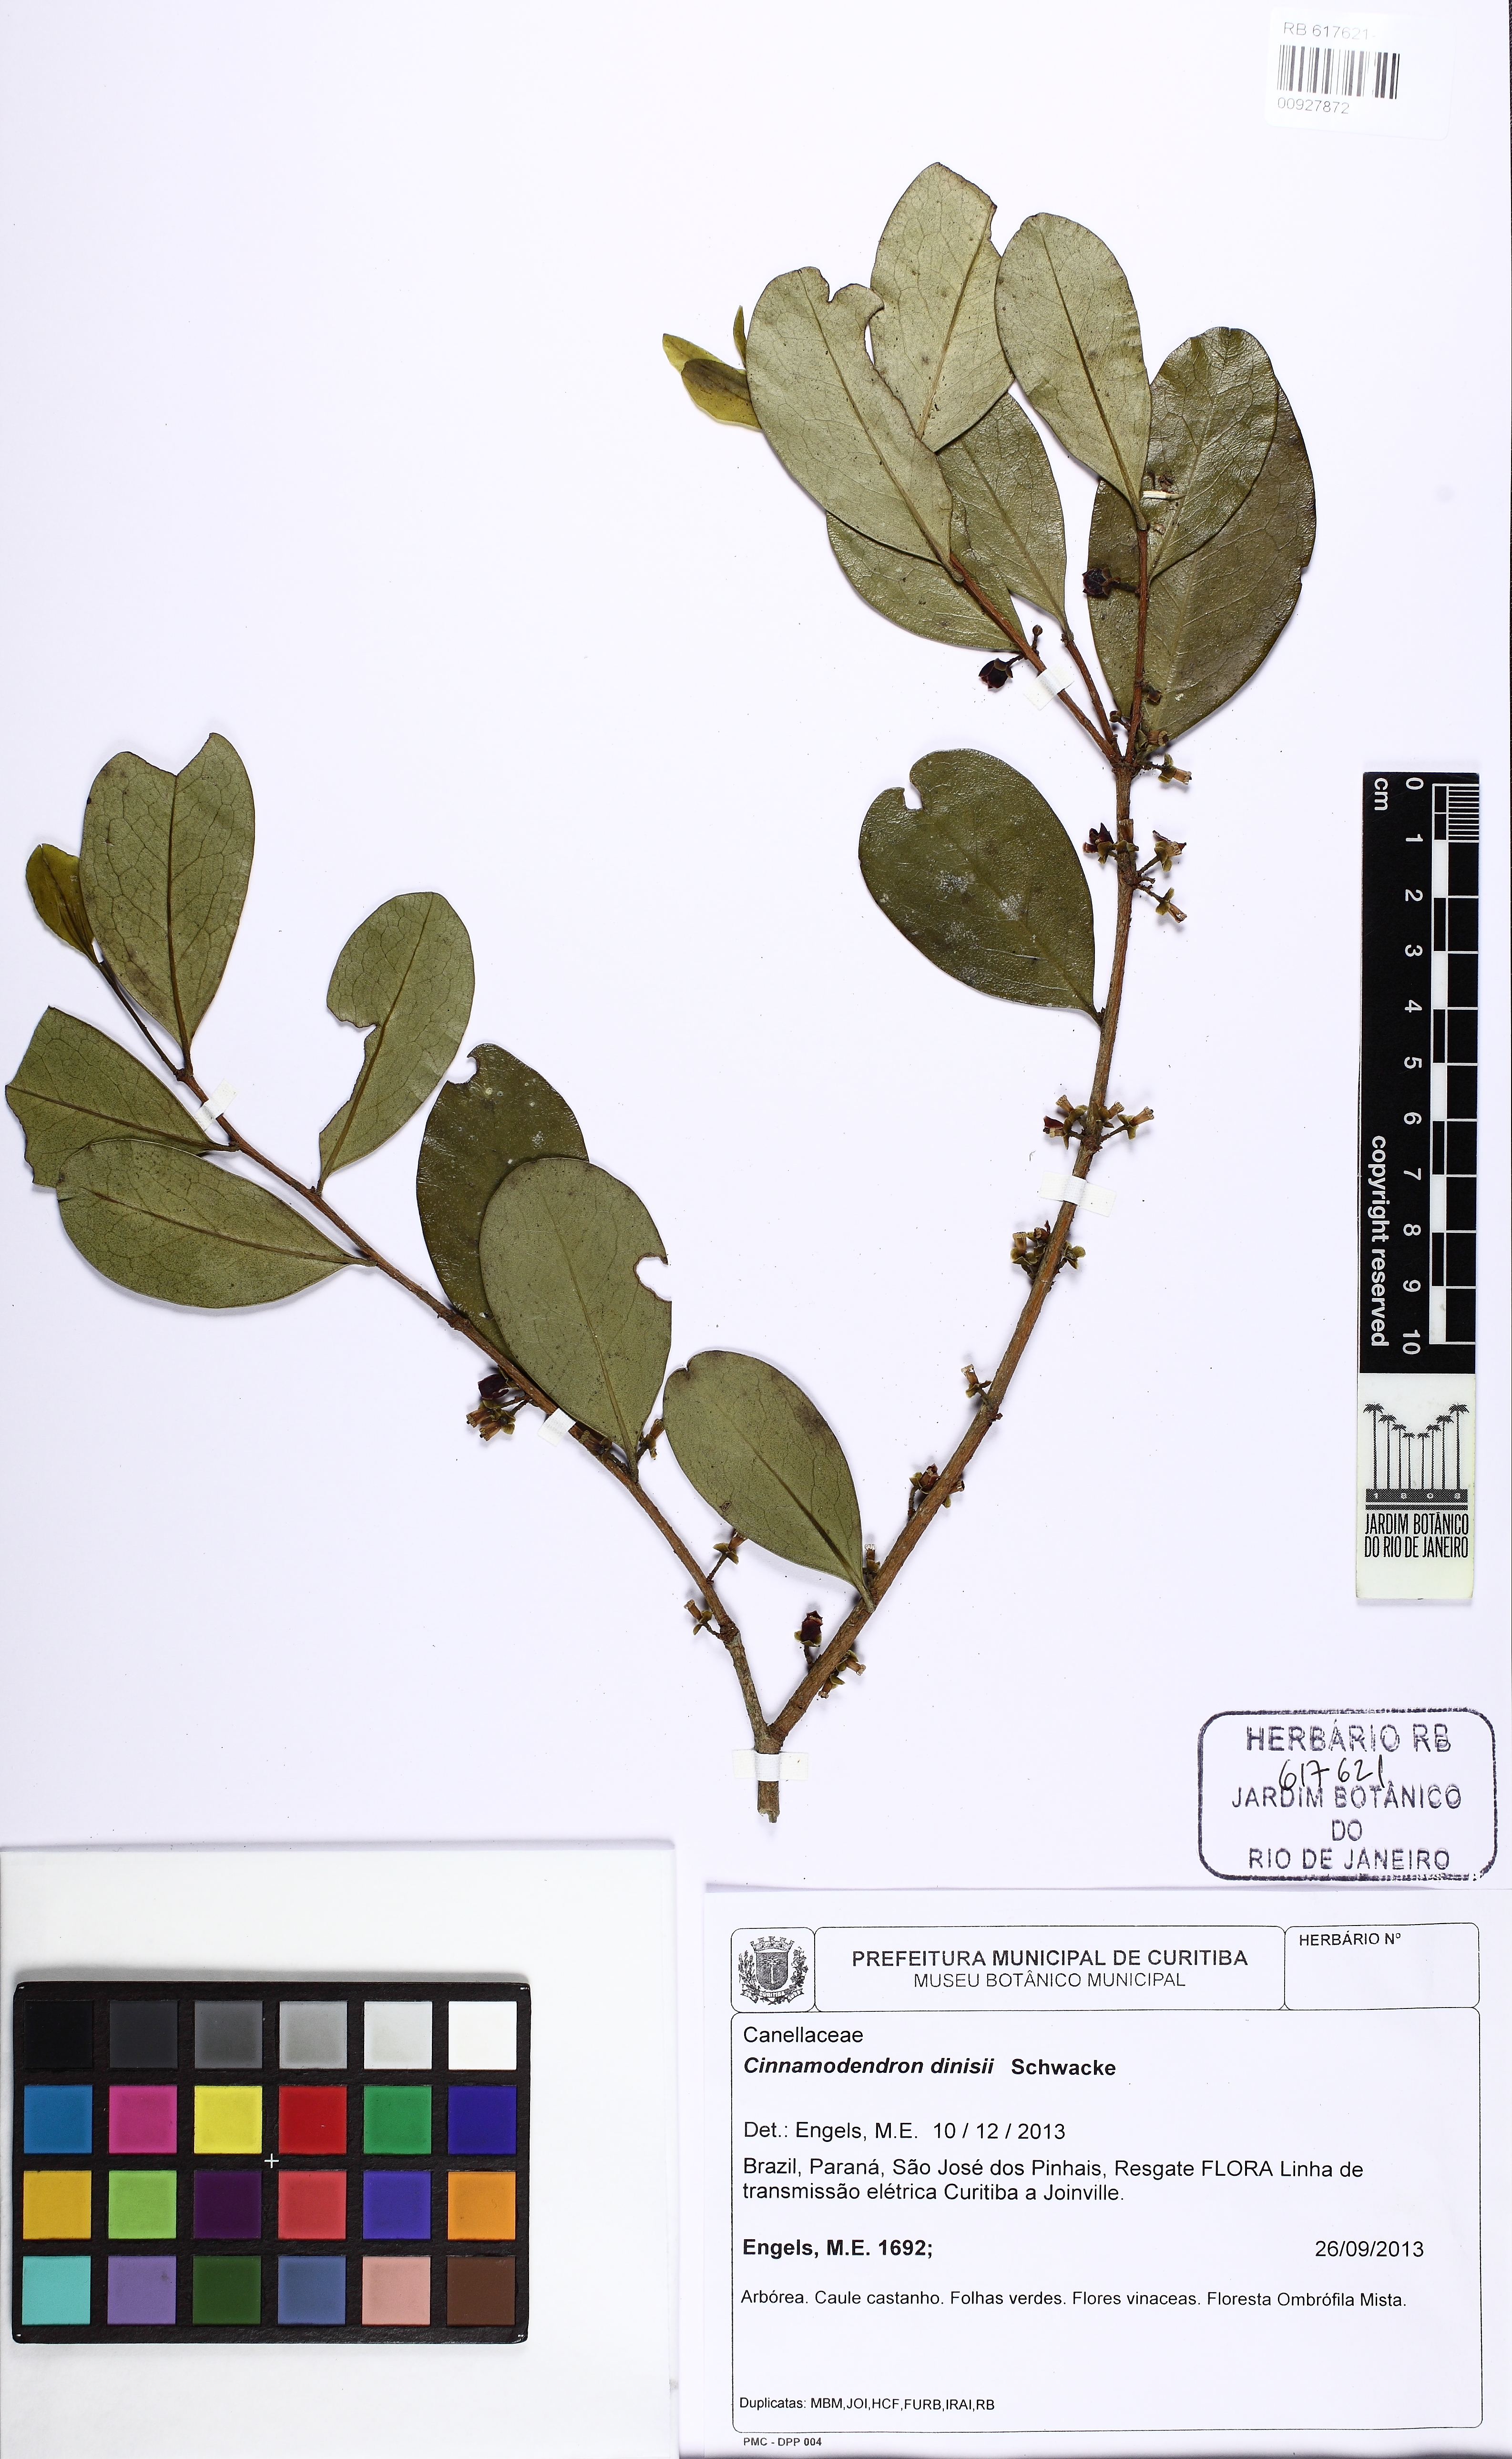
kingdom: Plantae
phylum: Tracheophyta
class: Magnoliopsida
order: Canellales
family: Canellaceae
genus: Cinnamodendron
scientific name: Cinnamodendron dinisii
